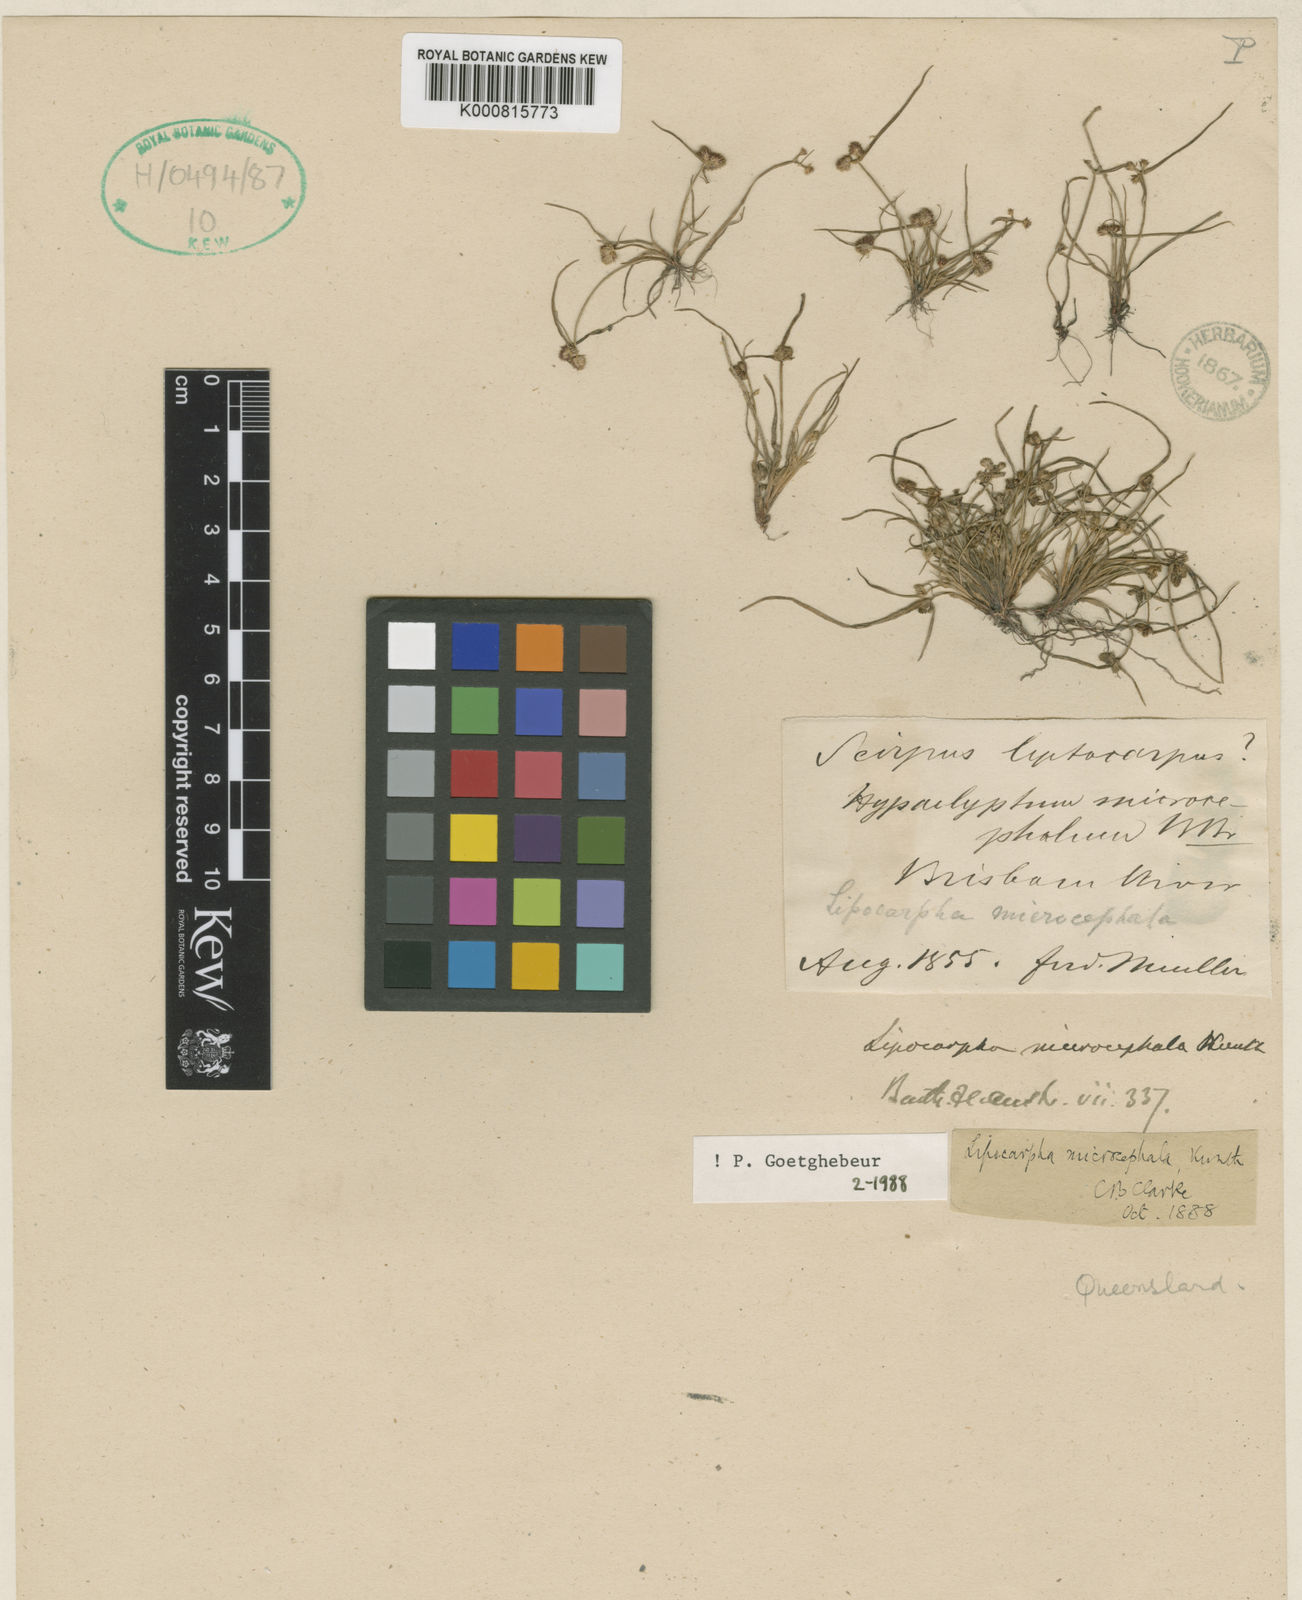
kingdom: Plantae
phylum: Tracheophyta
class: Liliopsida
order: Poales
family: Cyperaceae
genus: Cyperus
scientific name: Cyperus leptocarpus
